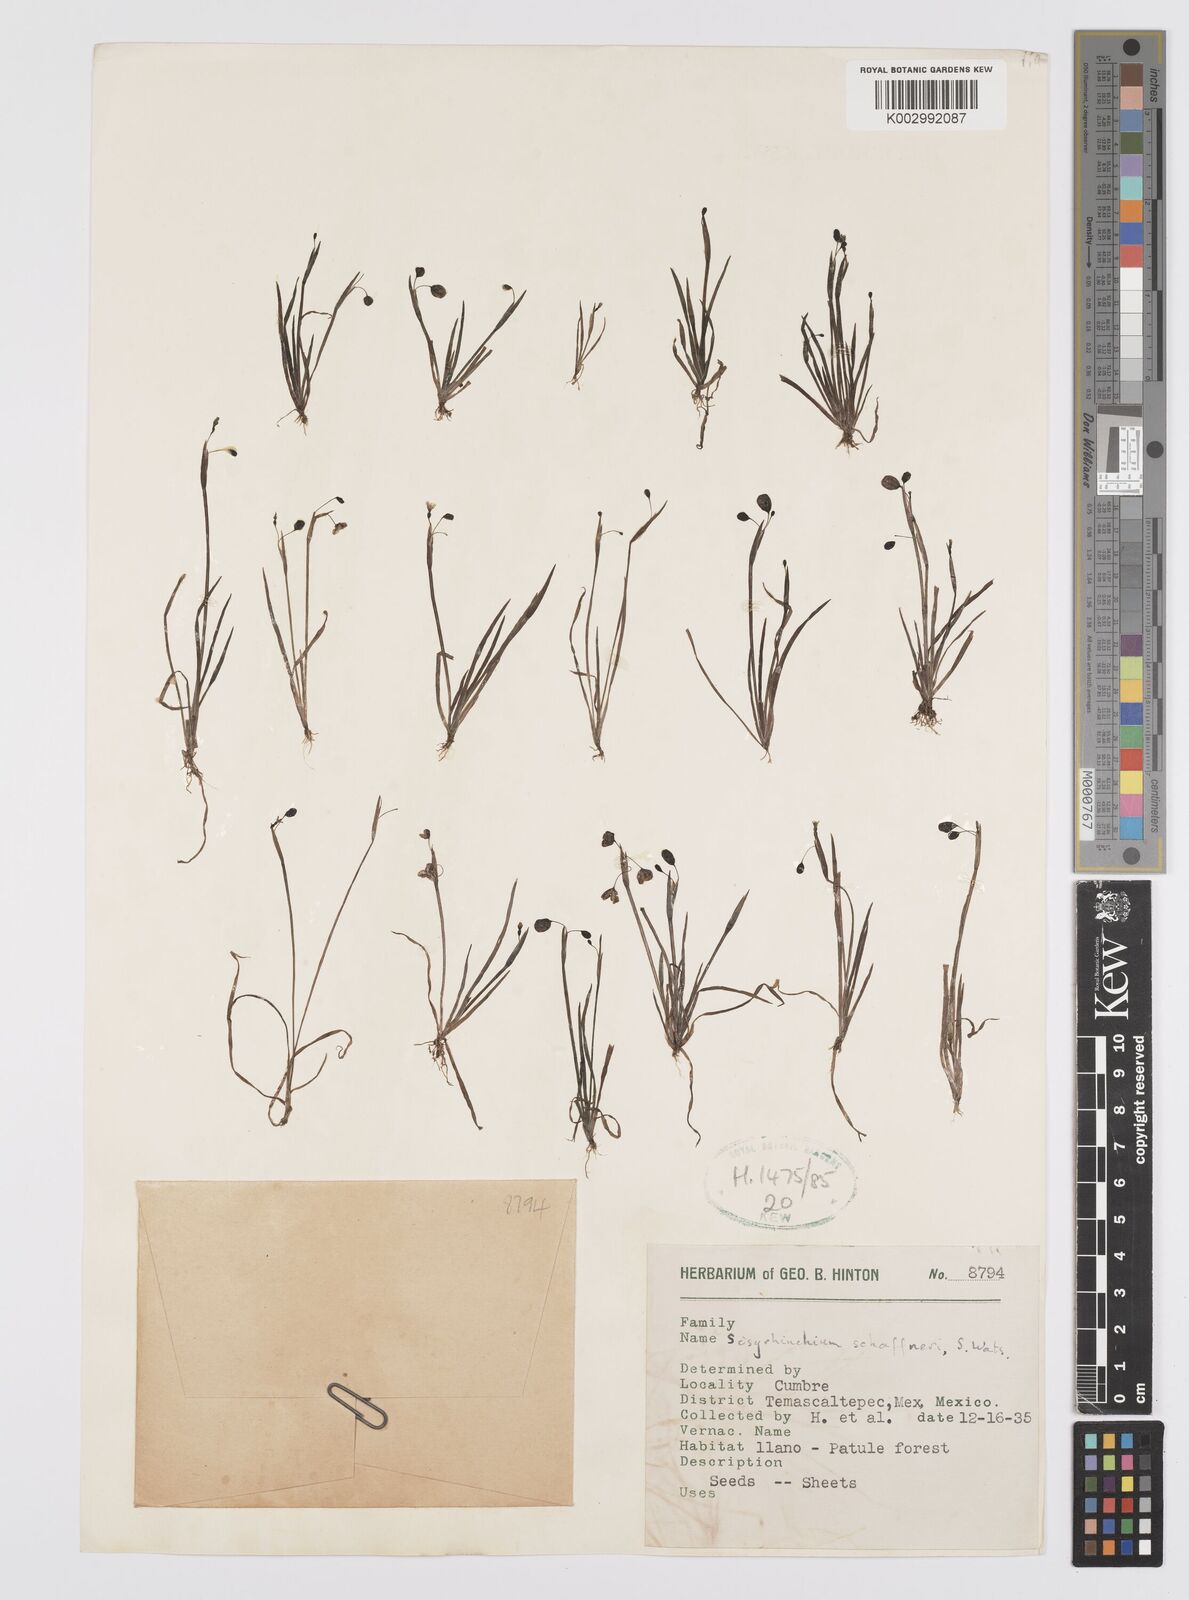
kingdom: Plantae
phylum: Tracheophyta
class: Liliopsida
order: Asparagales
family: Iridaceae
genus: Sisyrinchium
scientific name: Sisyrinchium schaffneri
